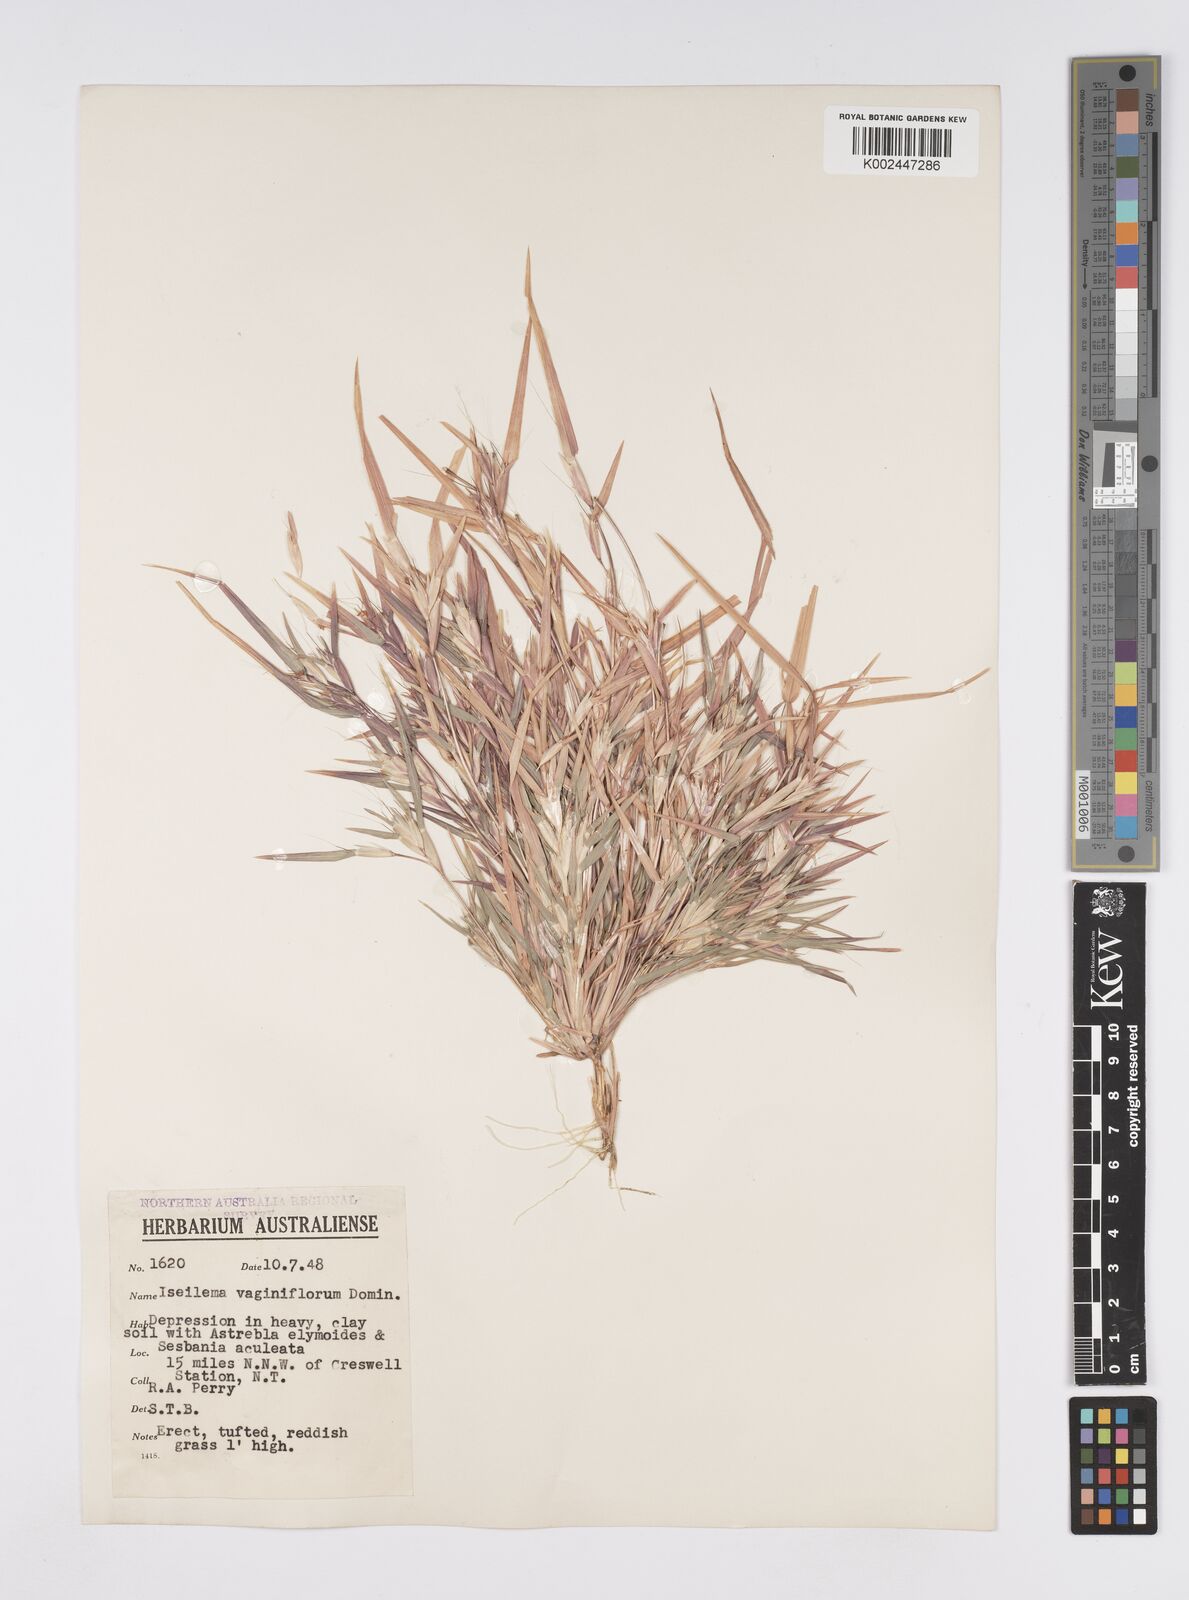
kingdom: Plantae
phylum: Tracheophyta
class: Liliopsida
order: Poales
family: Poaceae
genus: Iseilema
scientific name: Iseilema vaginiflorum
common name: Red flinders grass
